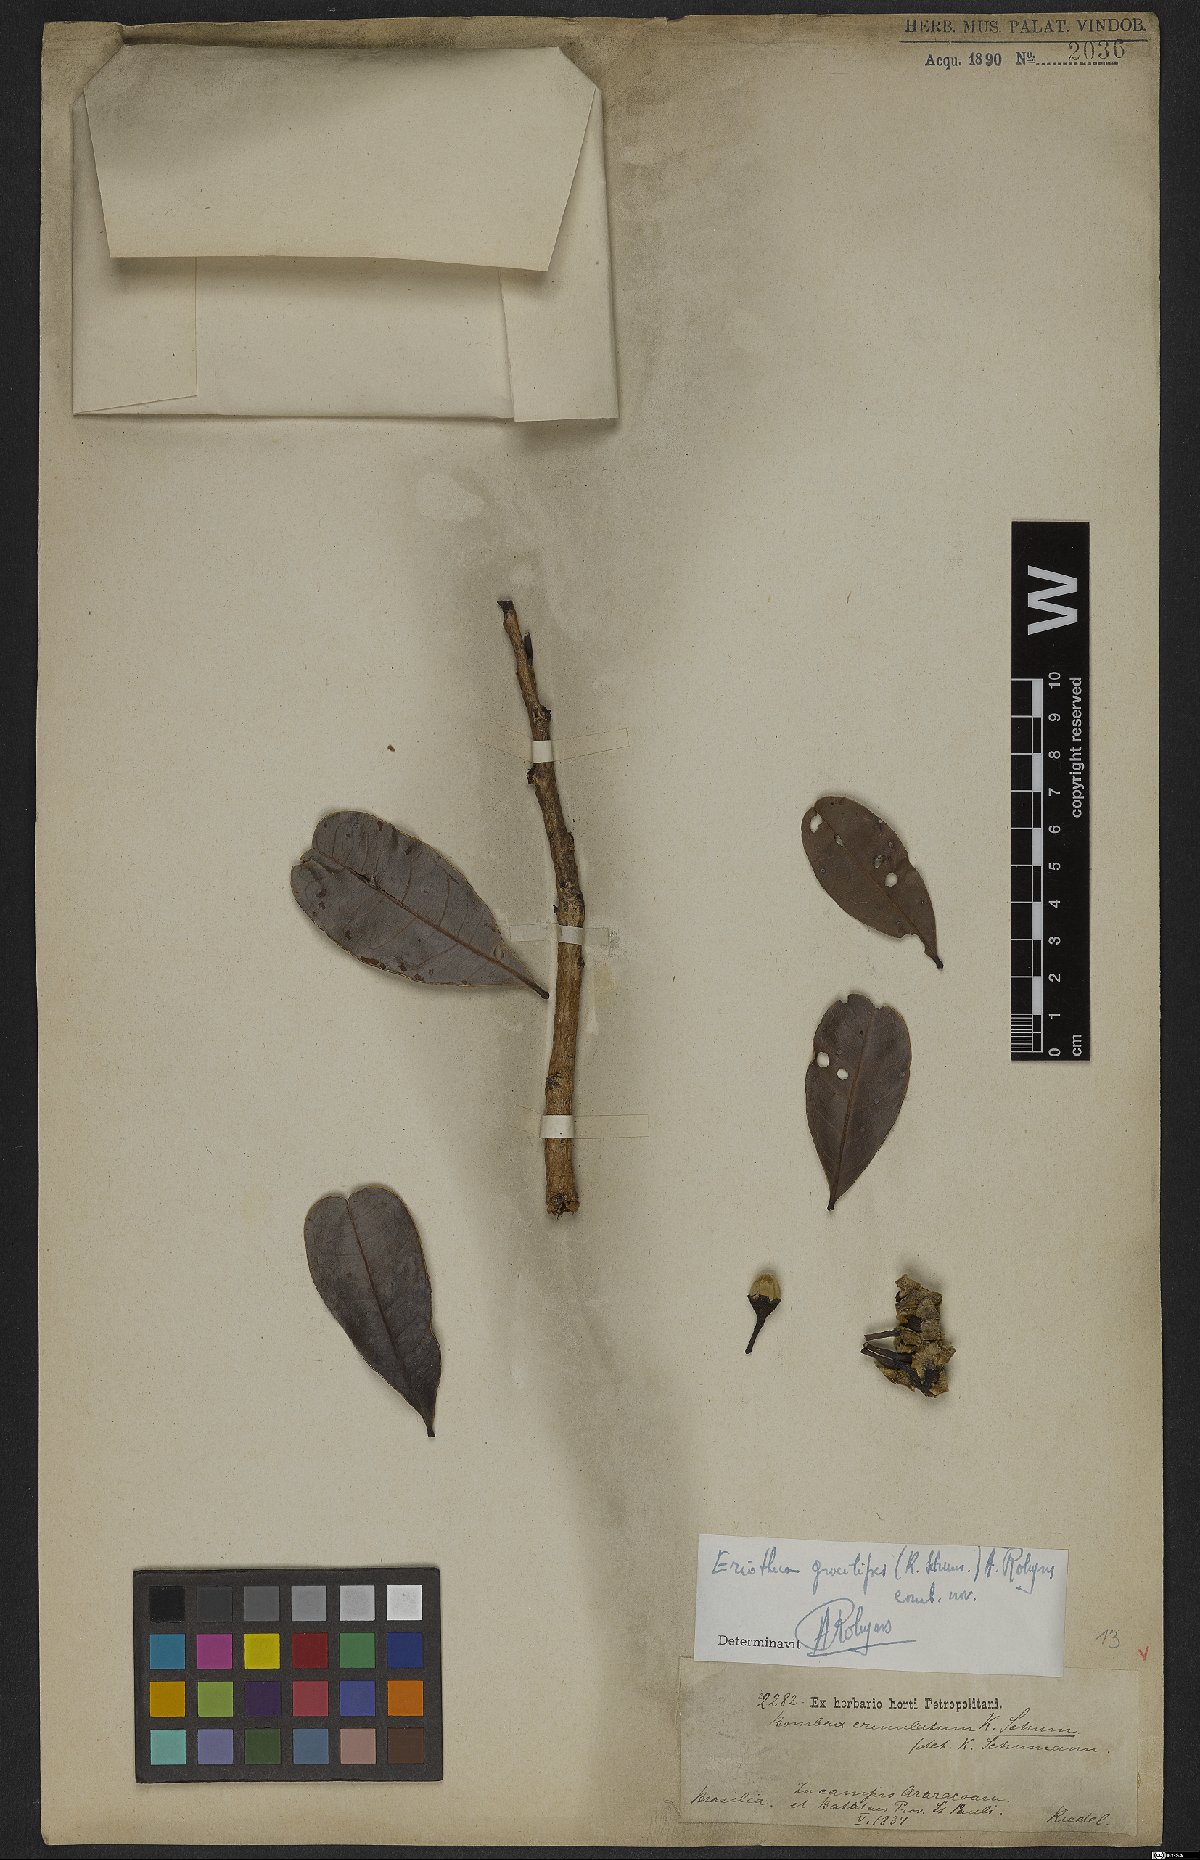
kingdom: Plantae
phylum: Tracheophyta
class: Magnoliopsida
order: Malvales
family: Malvaceae
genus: Eriotheca
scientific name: Eriotheca gracilipes
